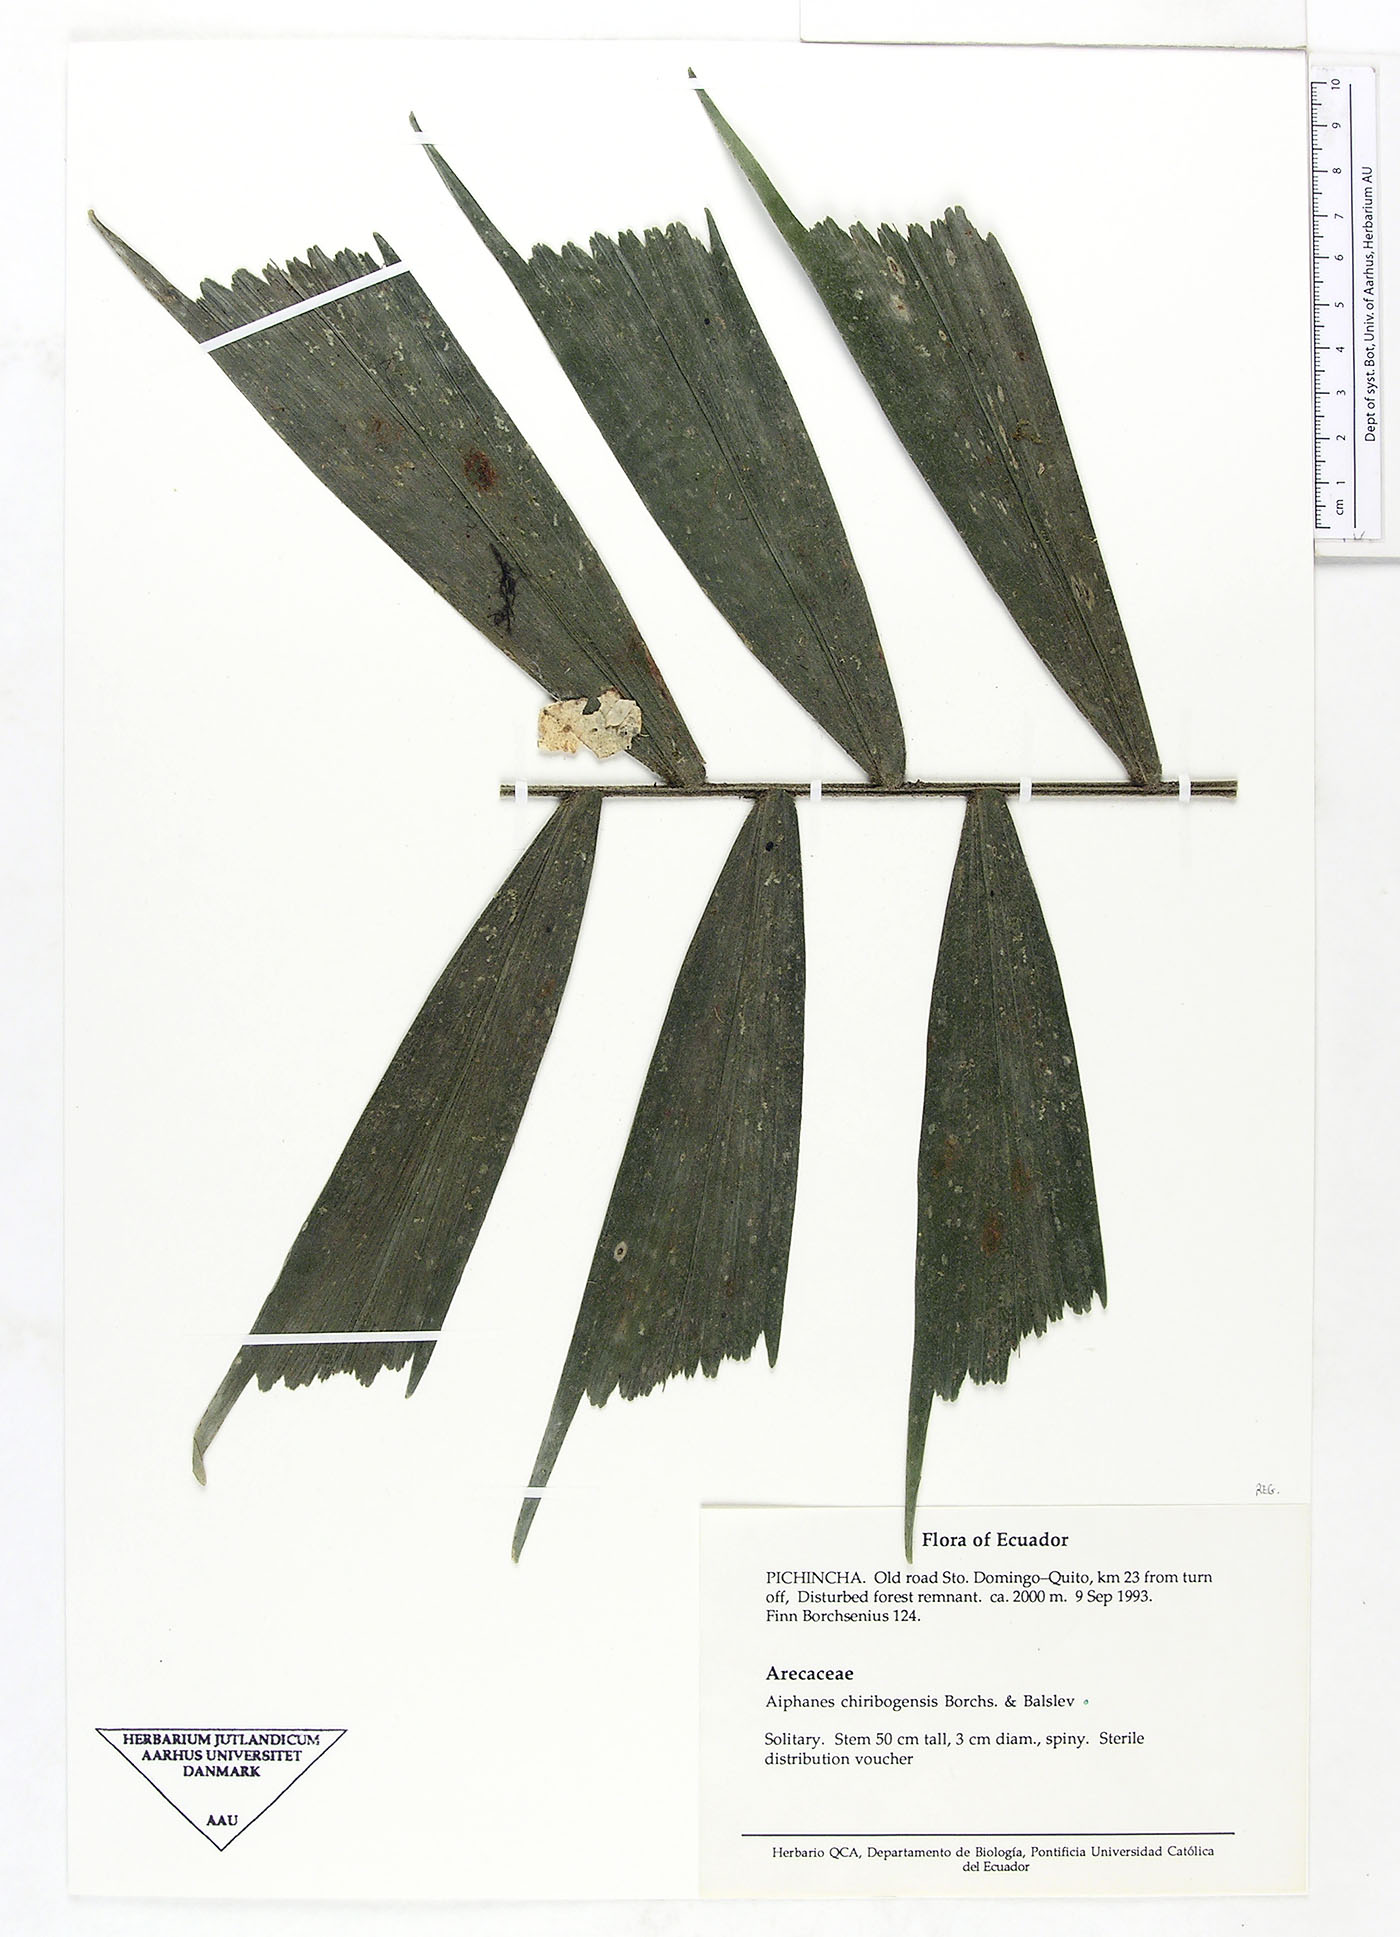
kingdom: Plantae
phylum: Tracheophyta
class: Liliopsida
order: Arecales
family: Arecaceae
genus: Aiphanes
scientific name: Aiphanes chiribogensis
